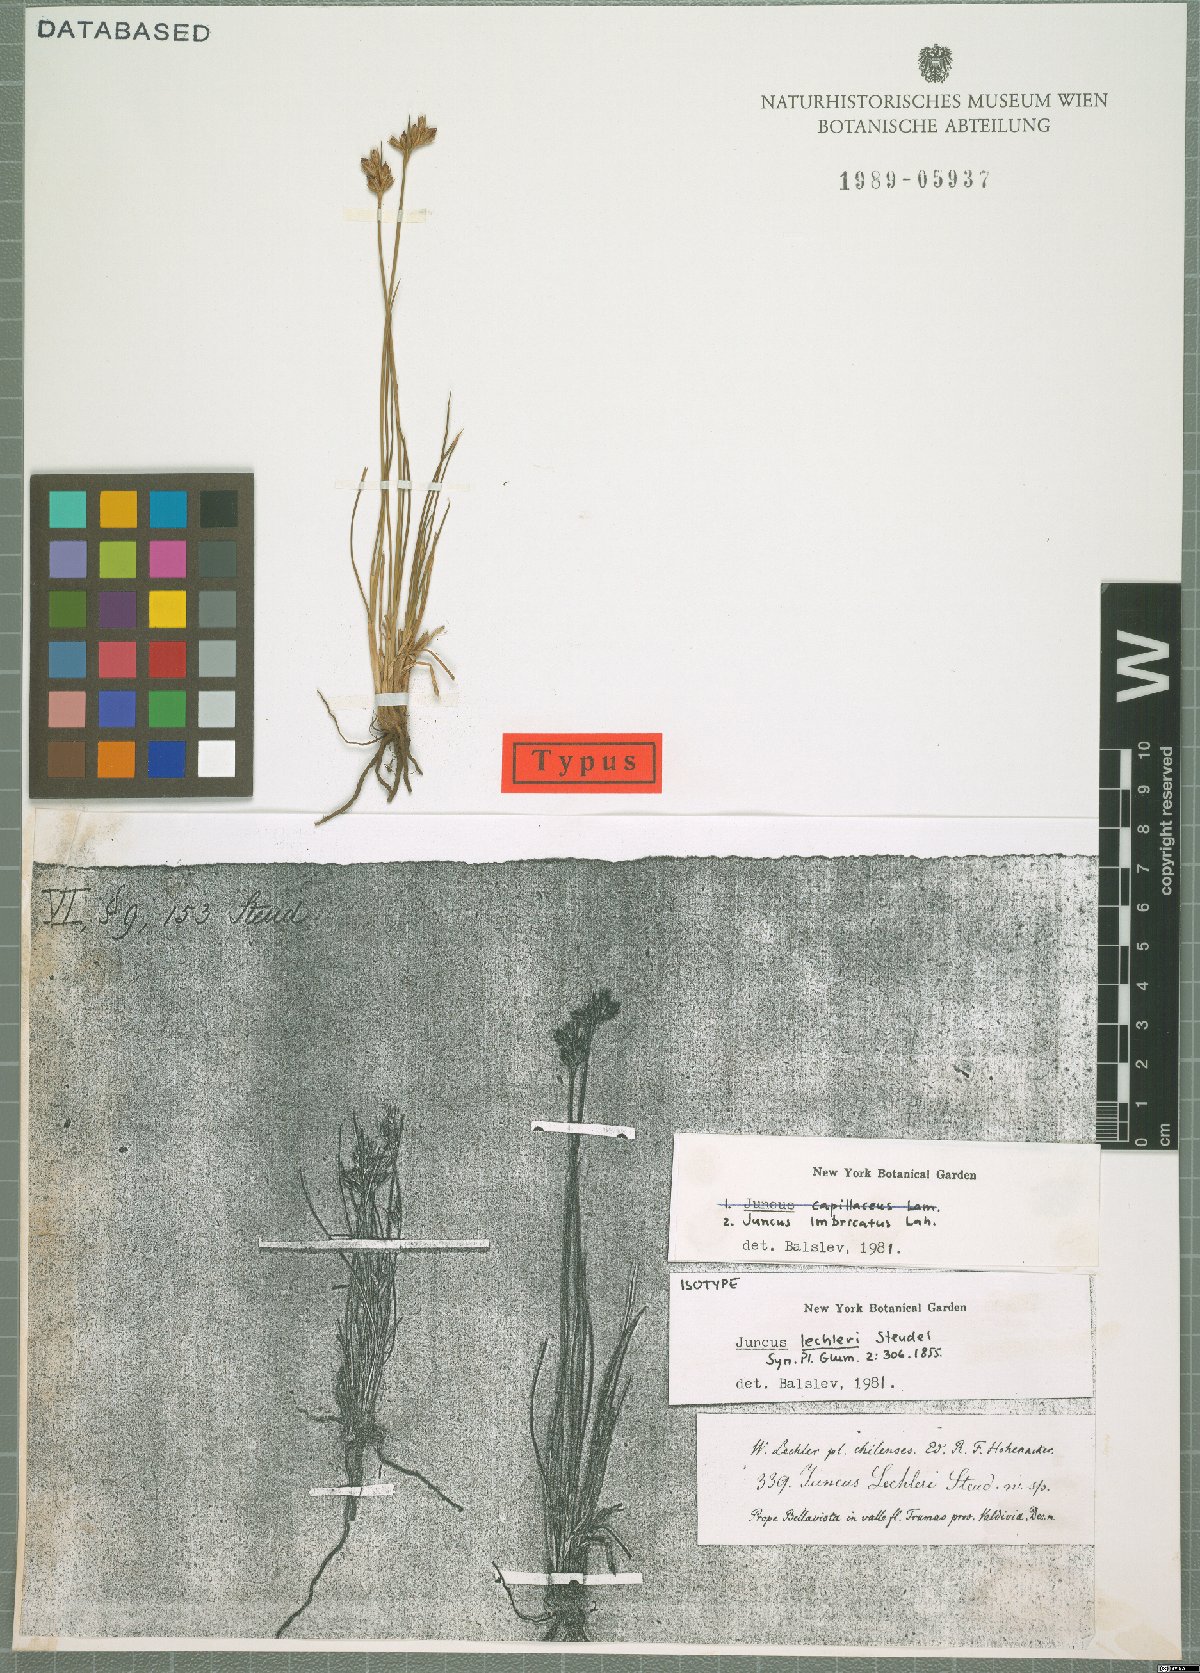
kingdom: Plantae
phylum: Tracheophyta
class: Liliopsida
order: Poales
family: Juncaceae
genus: Juncus
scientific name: Juncus imbricatus
